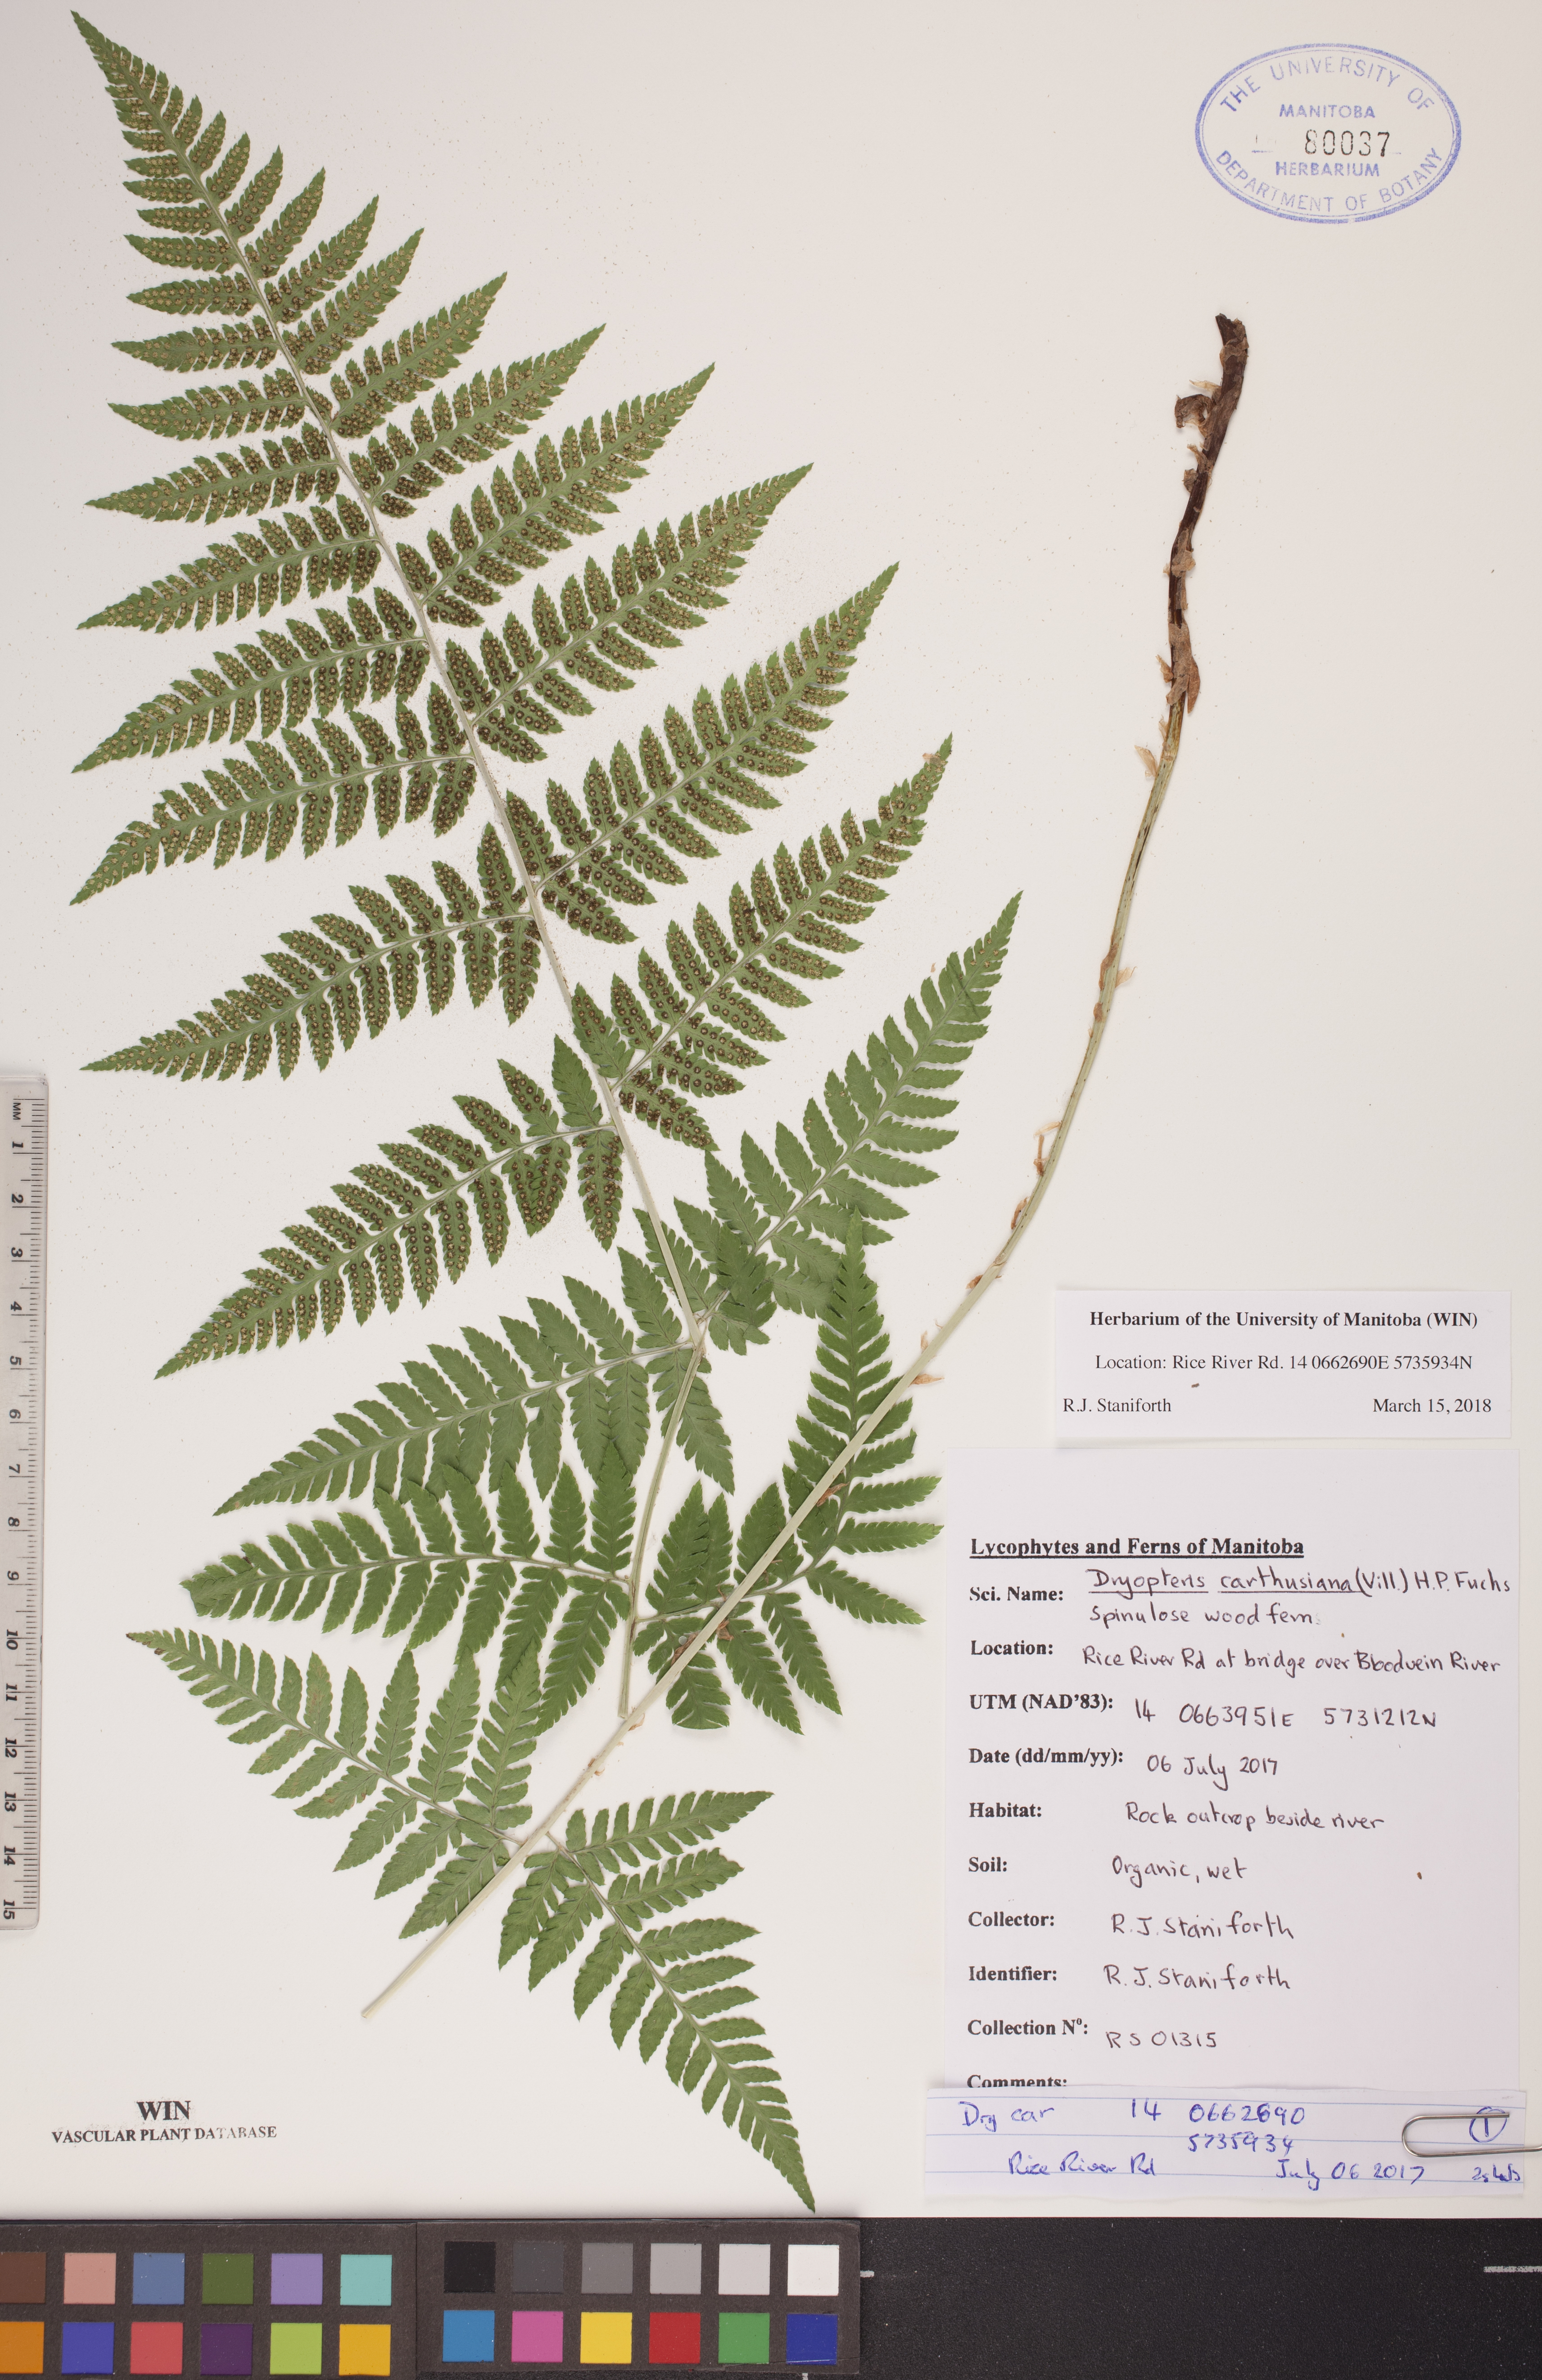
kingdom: Plantae
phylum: Tracheophyta
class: Polypodiopsida
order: Polypodiales
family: Dryopteridaceae
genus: Dryopteris
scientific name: Dryopteris carthusiana
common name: Narrow buckler-fern
